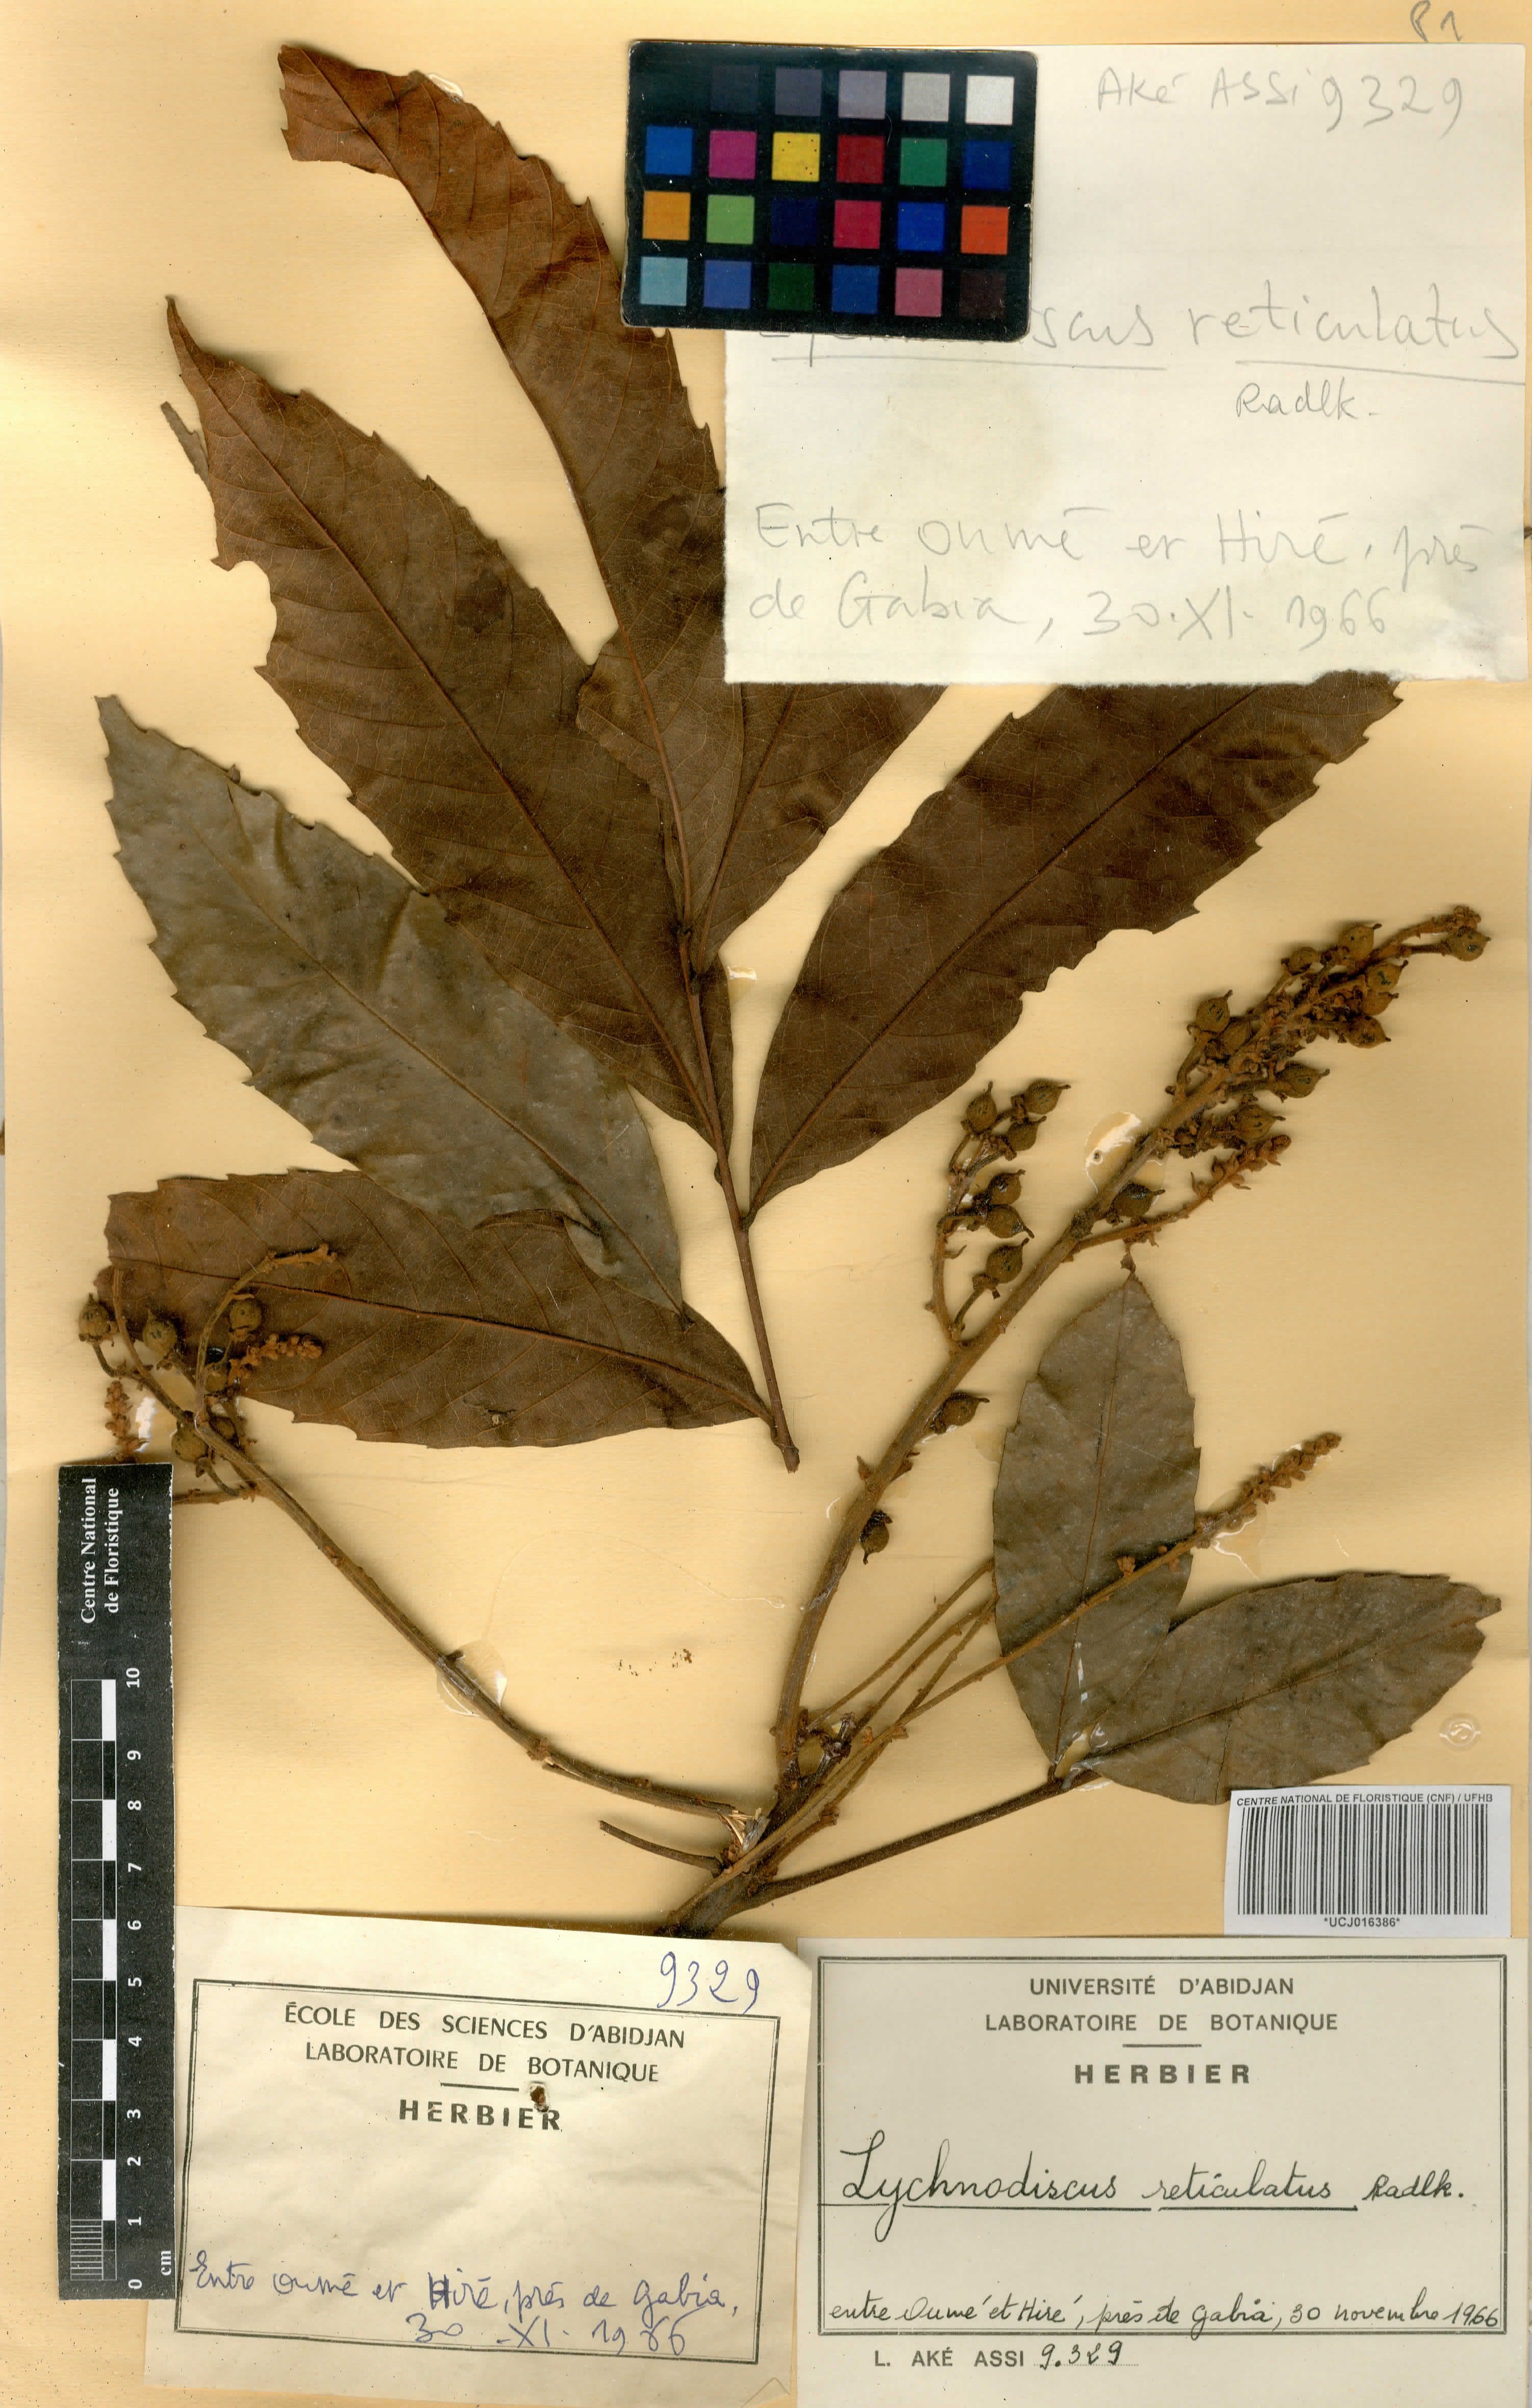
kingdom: Plantae
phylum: Tracheophyta
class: Magnoliopsida
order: Sapindales
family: Sapindaceae
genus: Lychnodiscus
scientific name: Lychnodiscus reticulatus
